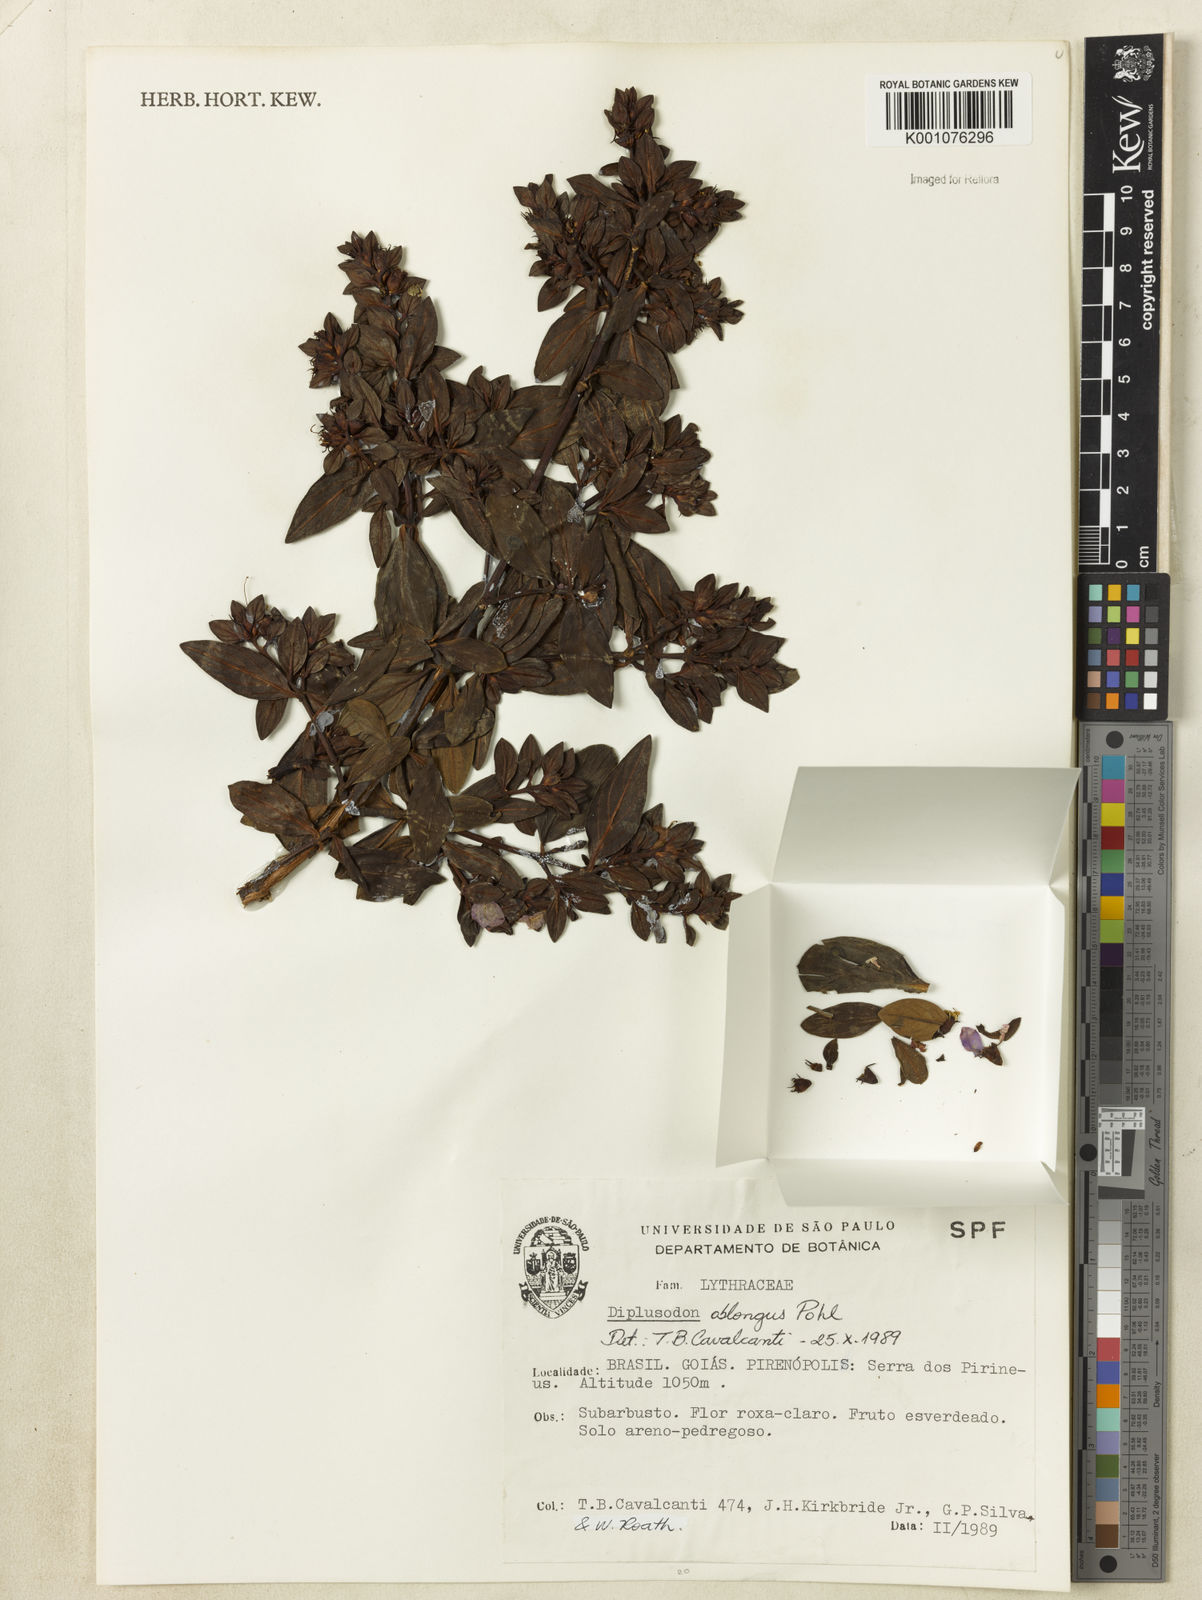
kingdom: Plantae
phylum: Tracheophyta
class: Magnoliopsida
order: Myrtales
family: Lythraceae
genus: Diplusodon
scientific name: Diplusodon oblongus
